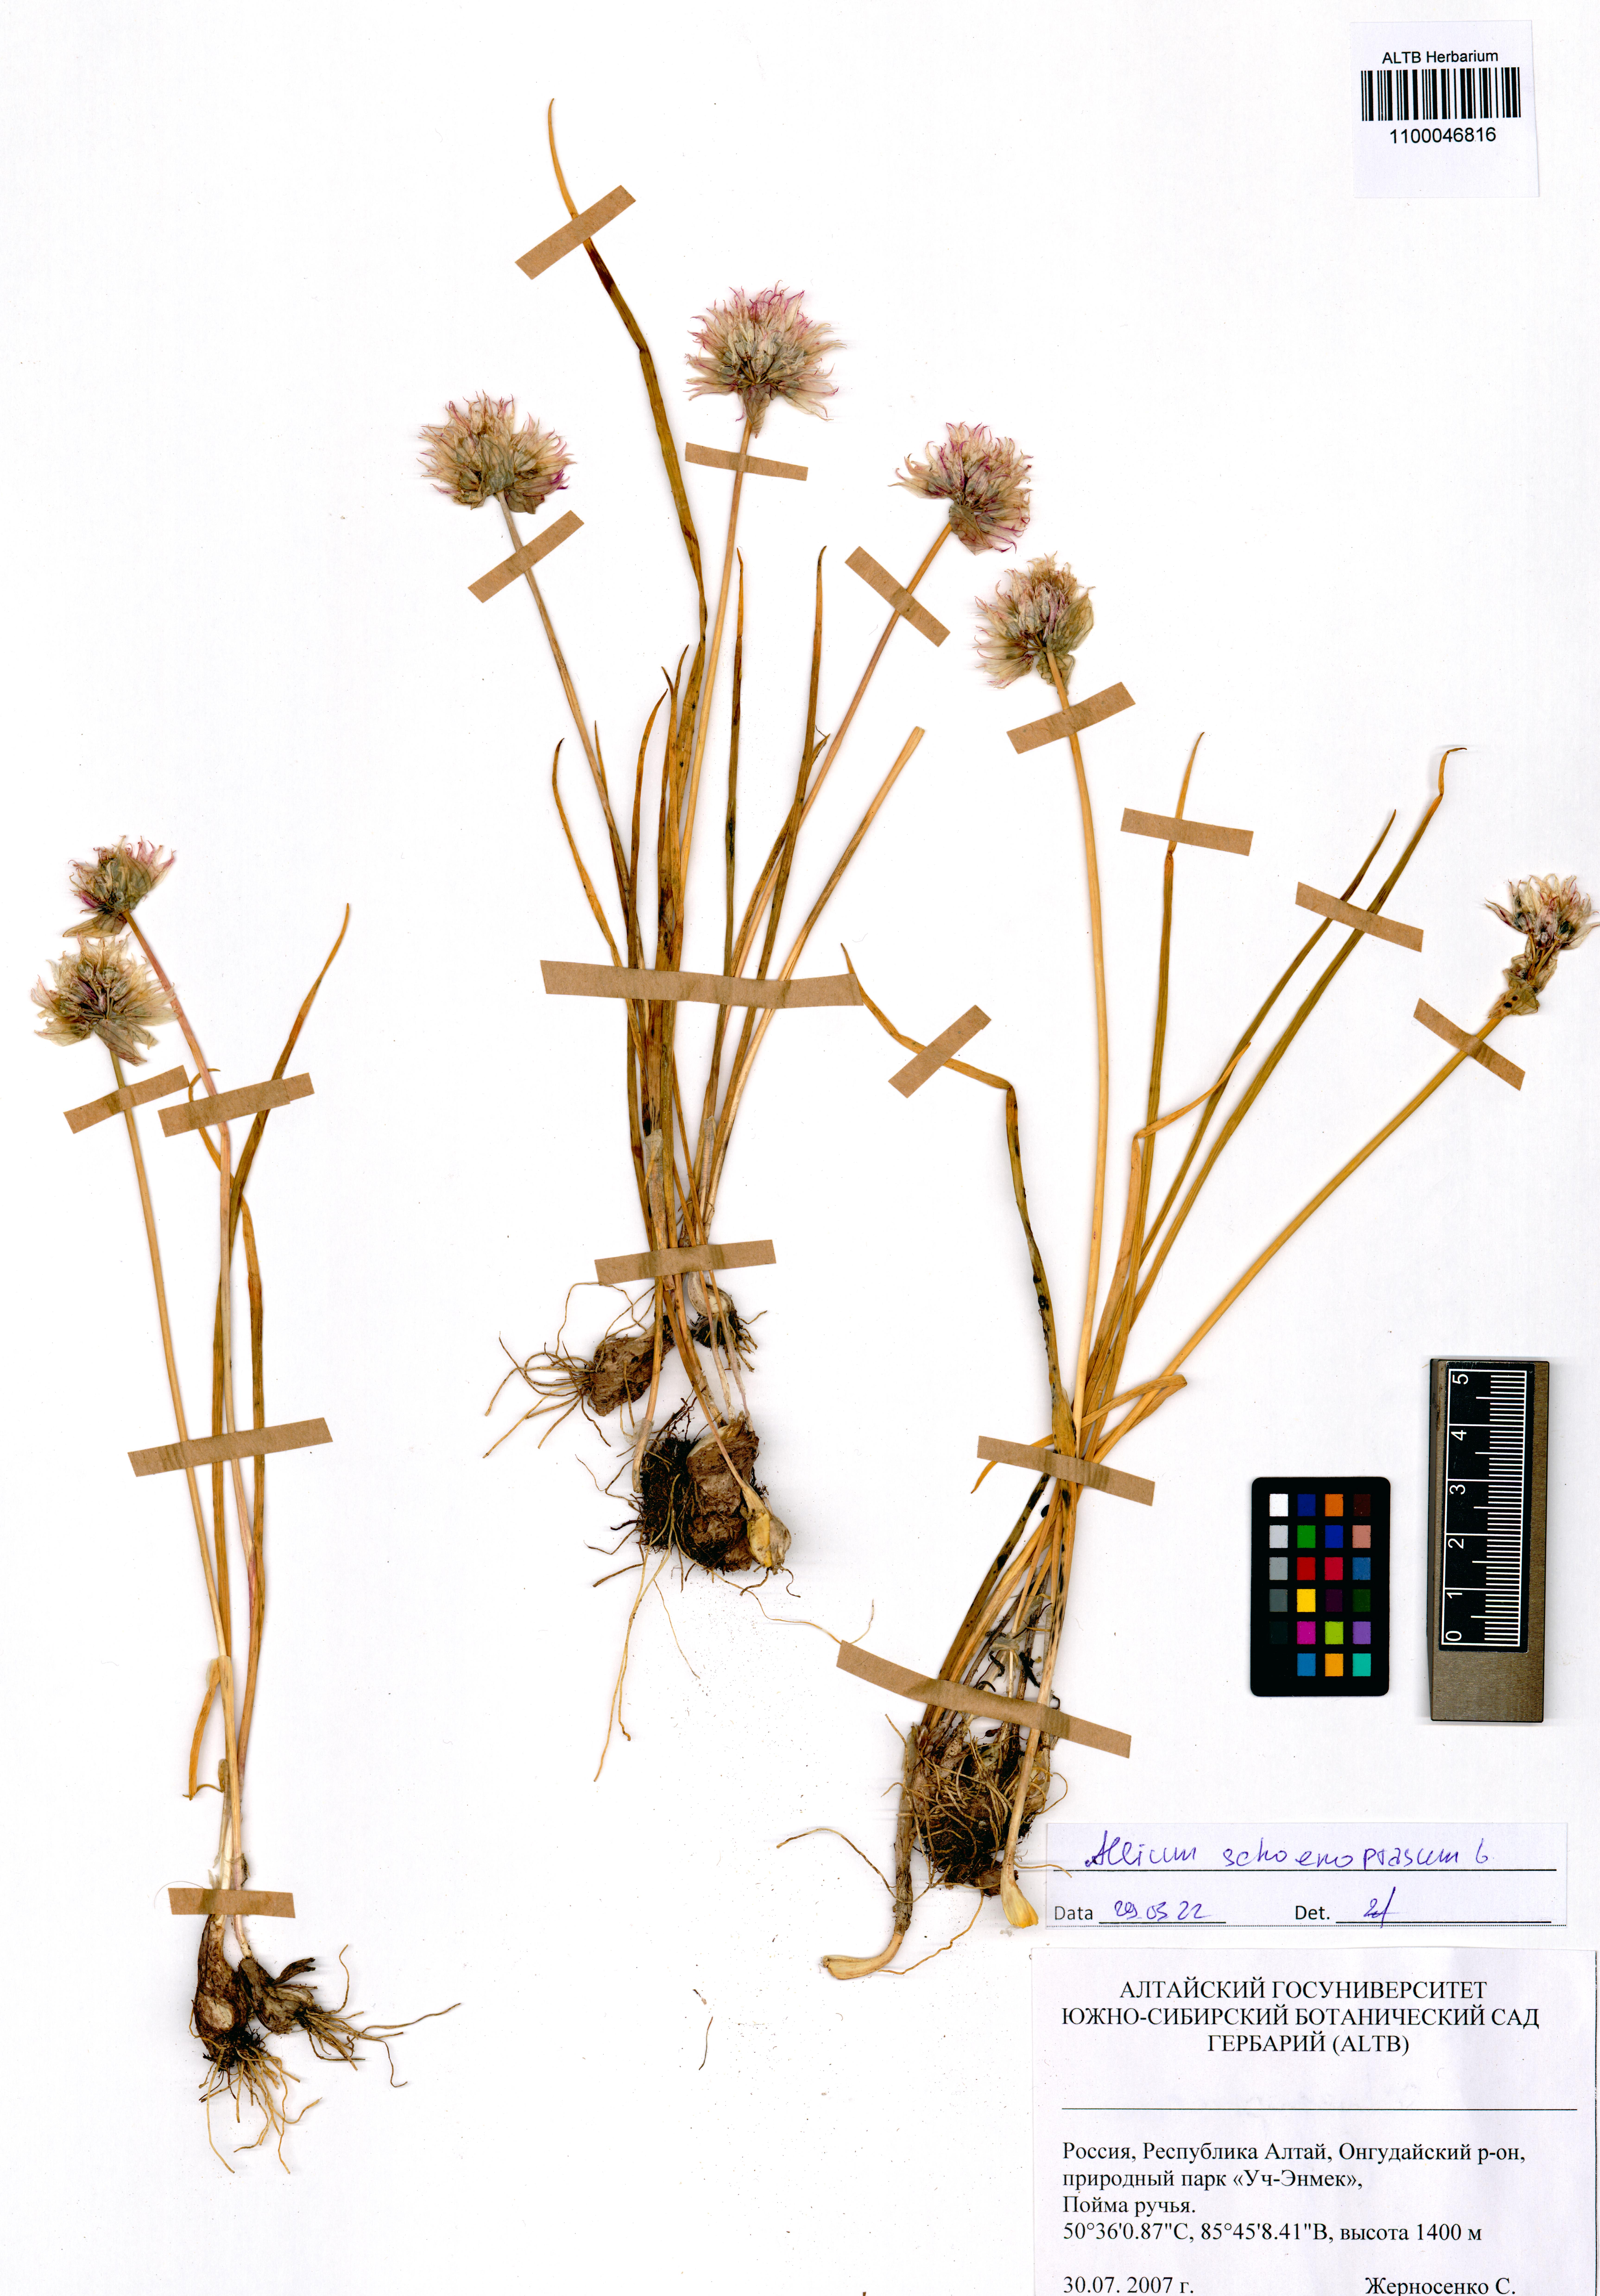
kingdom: Plantae
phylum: Tracheophyta
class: Liliopsida
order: Asparagales
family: Amaryllidaceae
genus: Allium
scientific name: Allium schoenoprasum
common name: Chives
